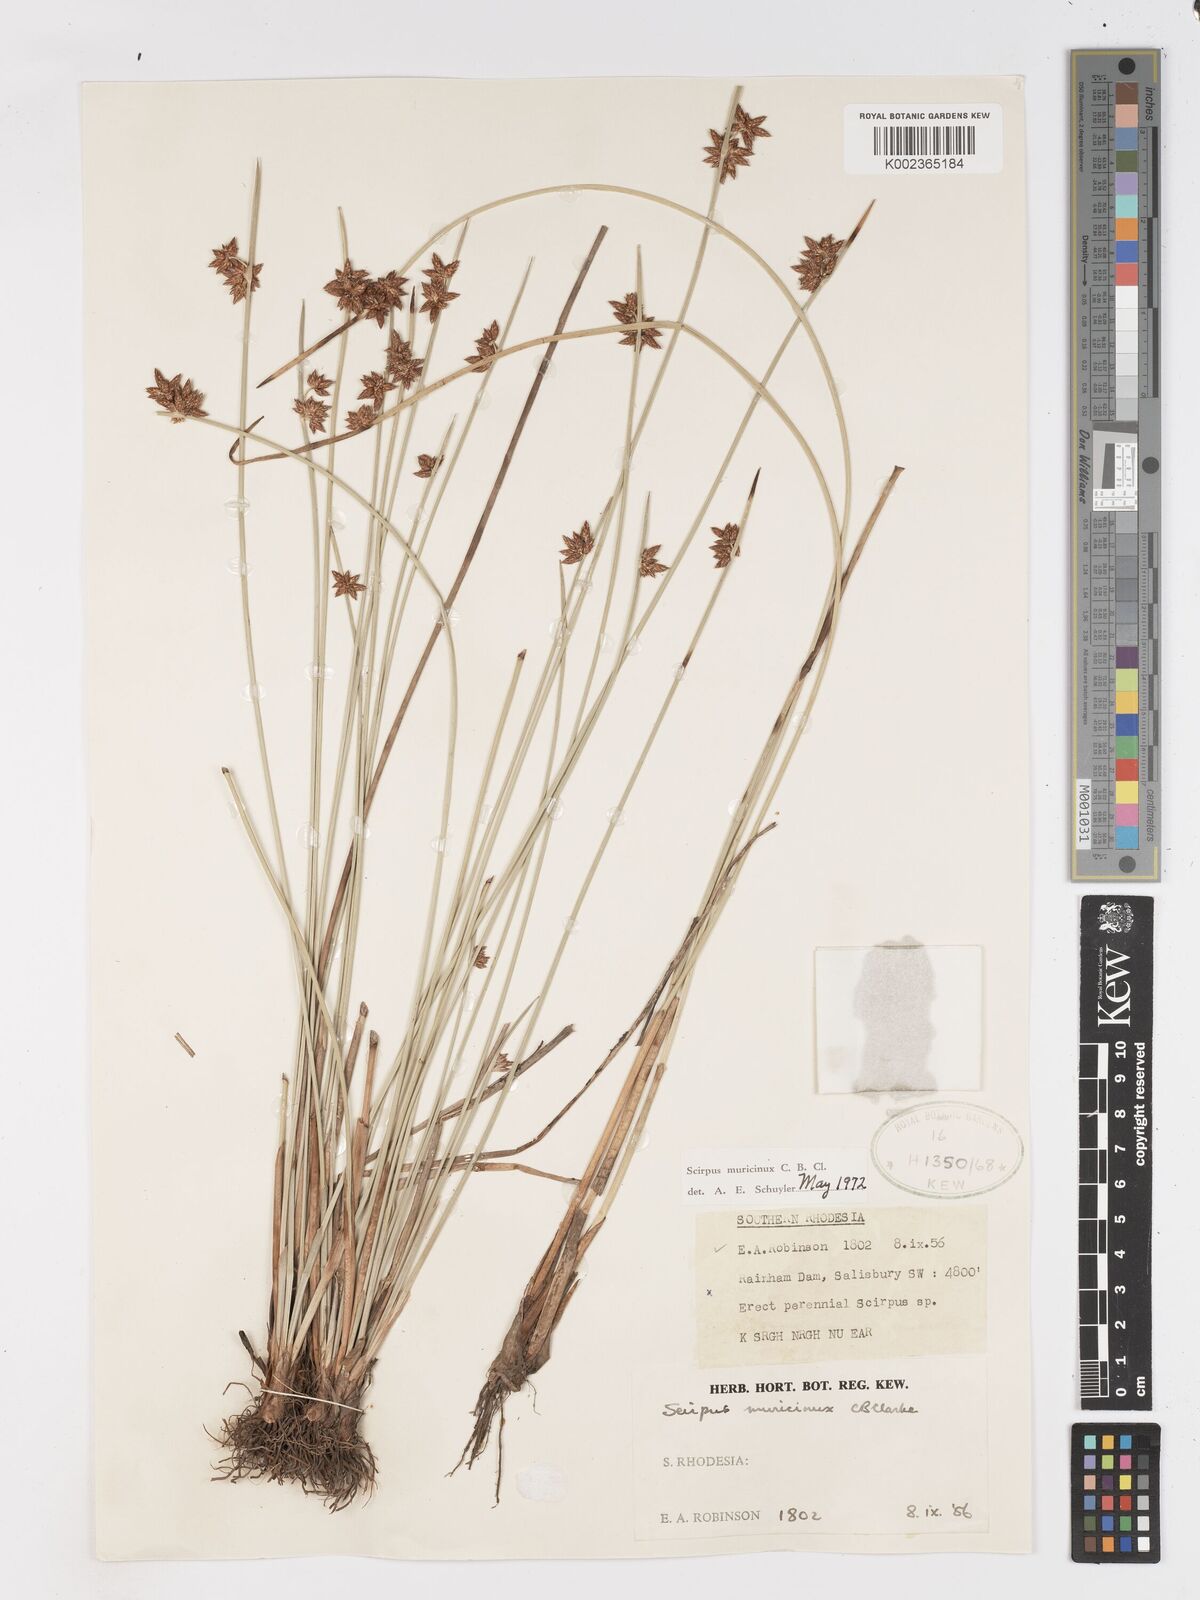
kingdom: Plantae
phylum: Tracheophyta
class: Liliopsida
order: Poales
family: Cyperaceae
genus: Schoenoplectiella
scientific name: Schoenoplectiella muricinux
